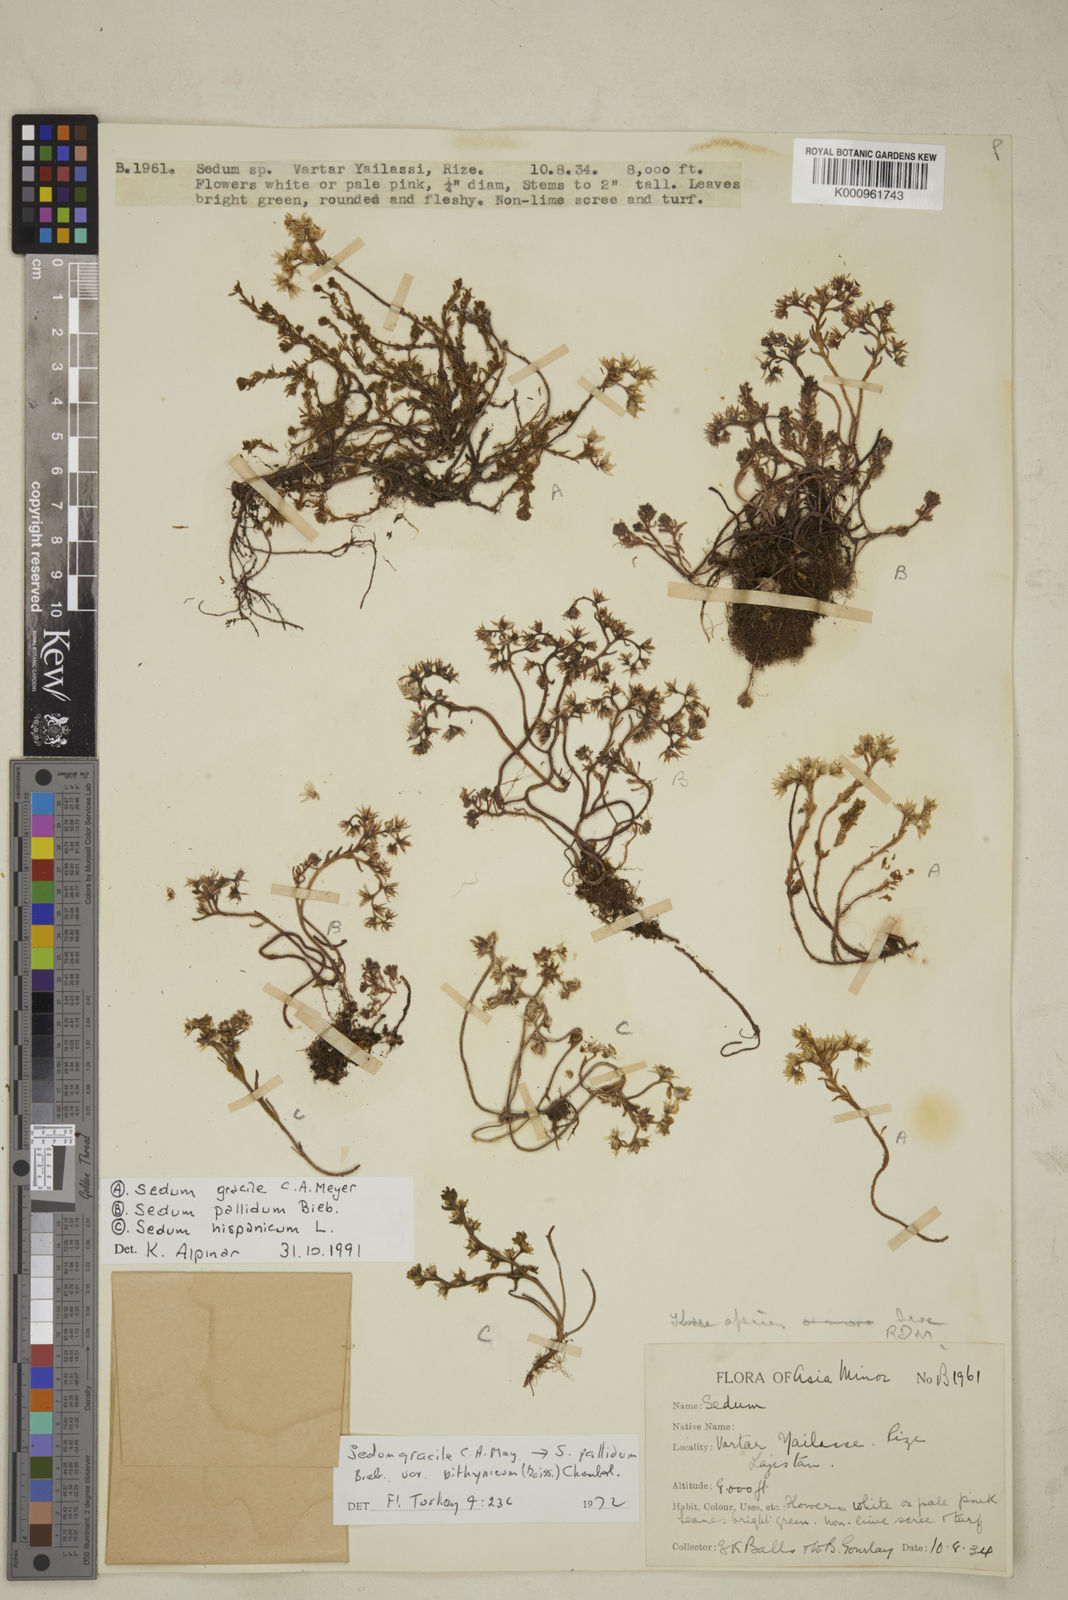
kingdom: Plantae
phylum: Tracheophyta
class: Magnoliopsida
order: Saxifragales
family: Crassulaceae
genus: Sedum
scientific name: Sedum gracile
